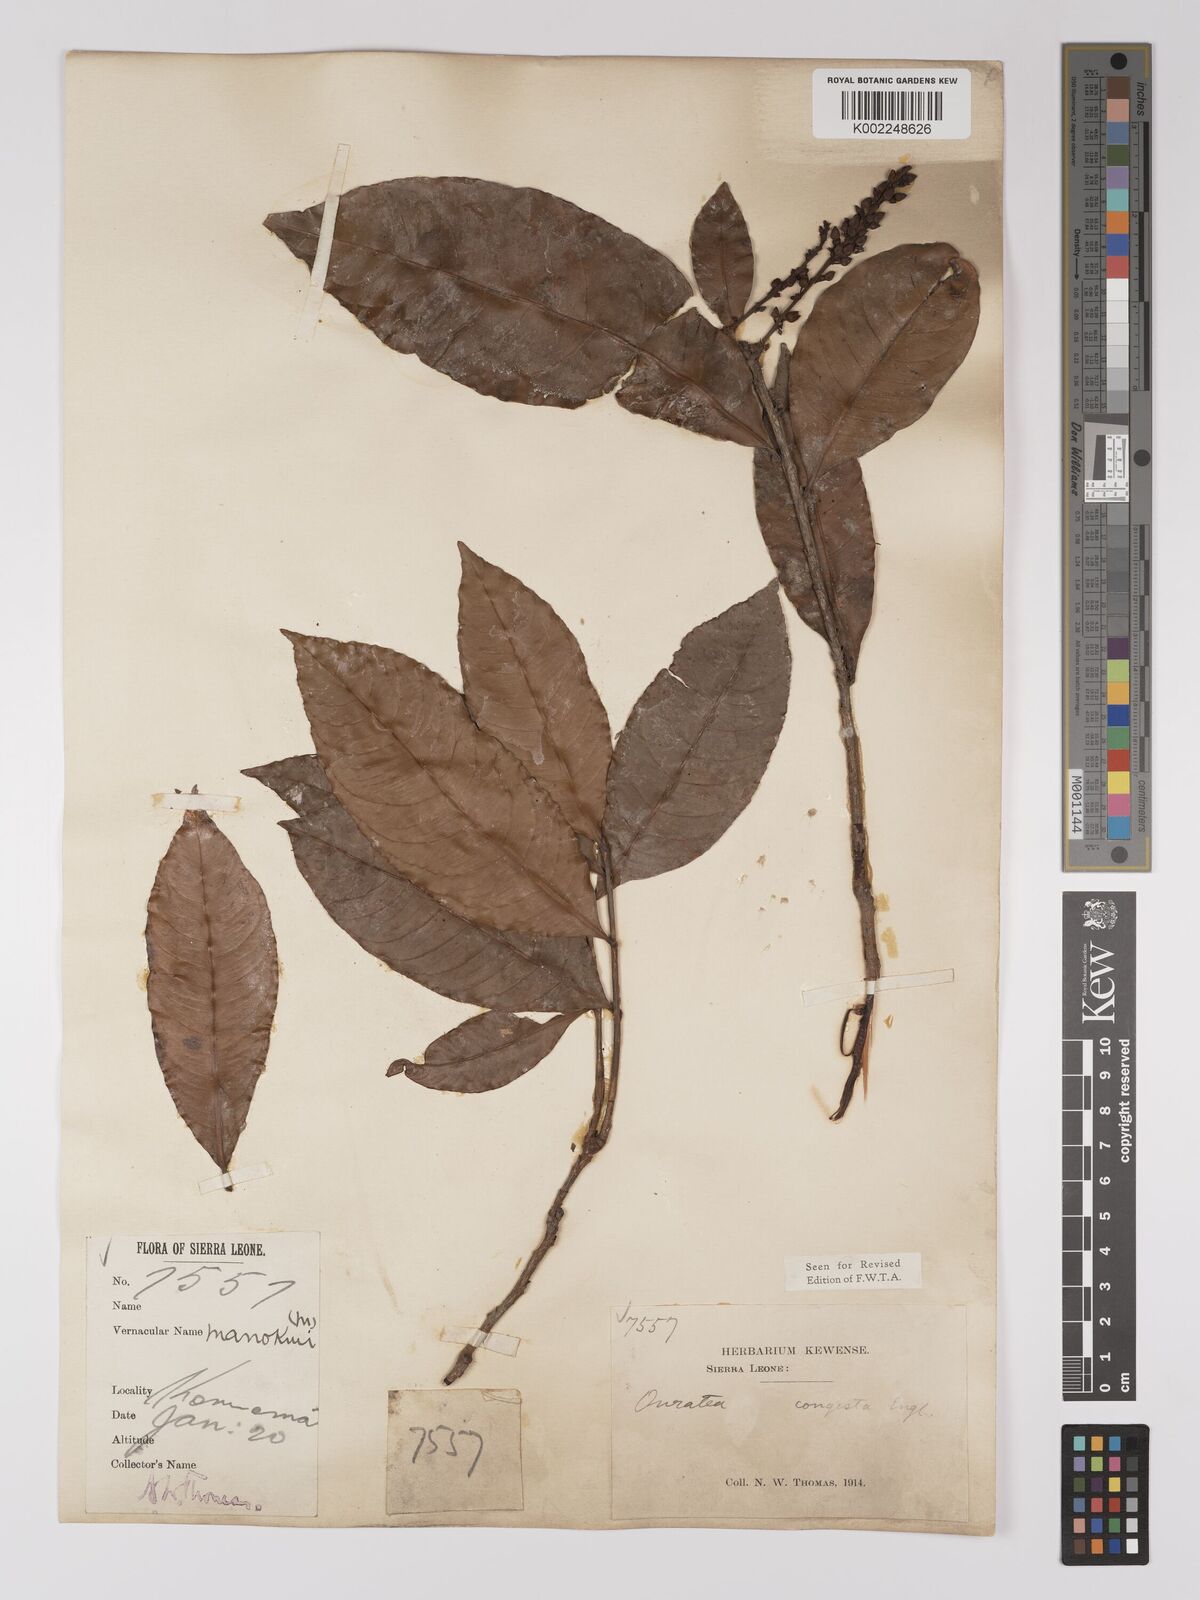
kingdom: Plantae
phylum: Tracheophyta
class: Magnoliopsida
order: Malpighiales
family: Ochnaceae
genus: Campylospermum
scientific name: Campylospermum congestum
